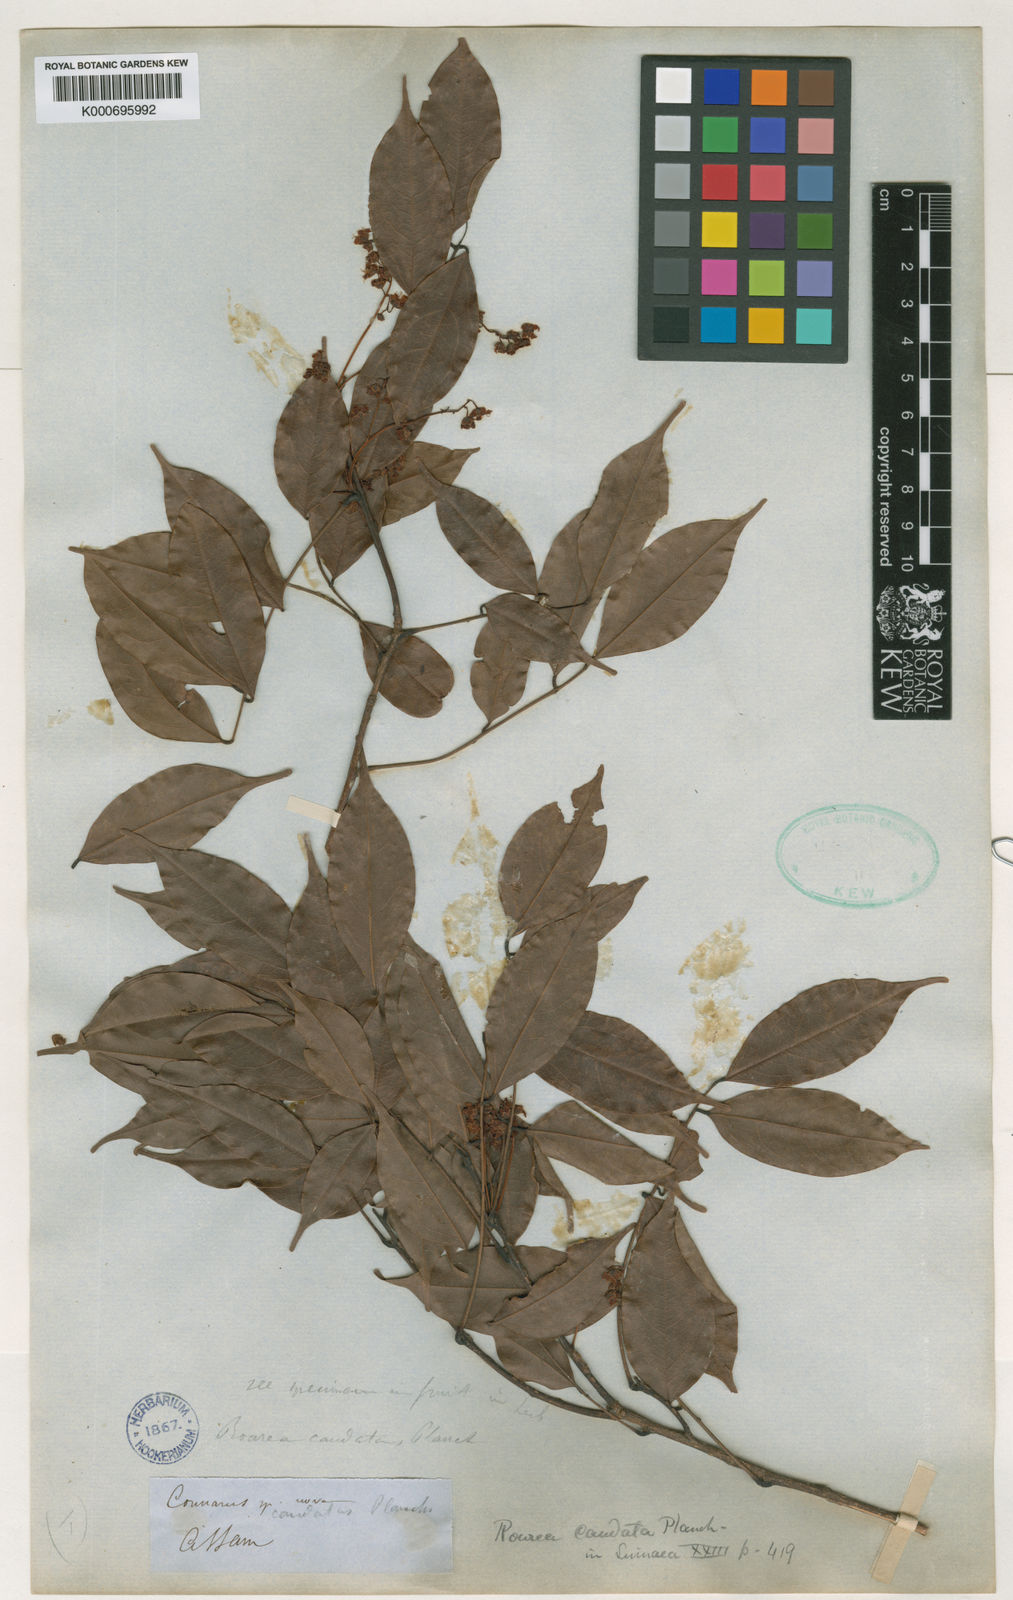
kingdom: Plantae
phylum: Tracheophyta
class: Magnoliopsida
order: Oxalidales
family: Connaraceae
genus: Rourea
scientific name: Rourea
